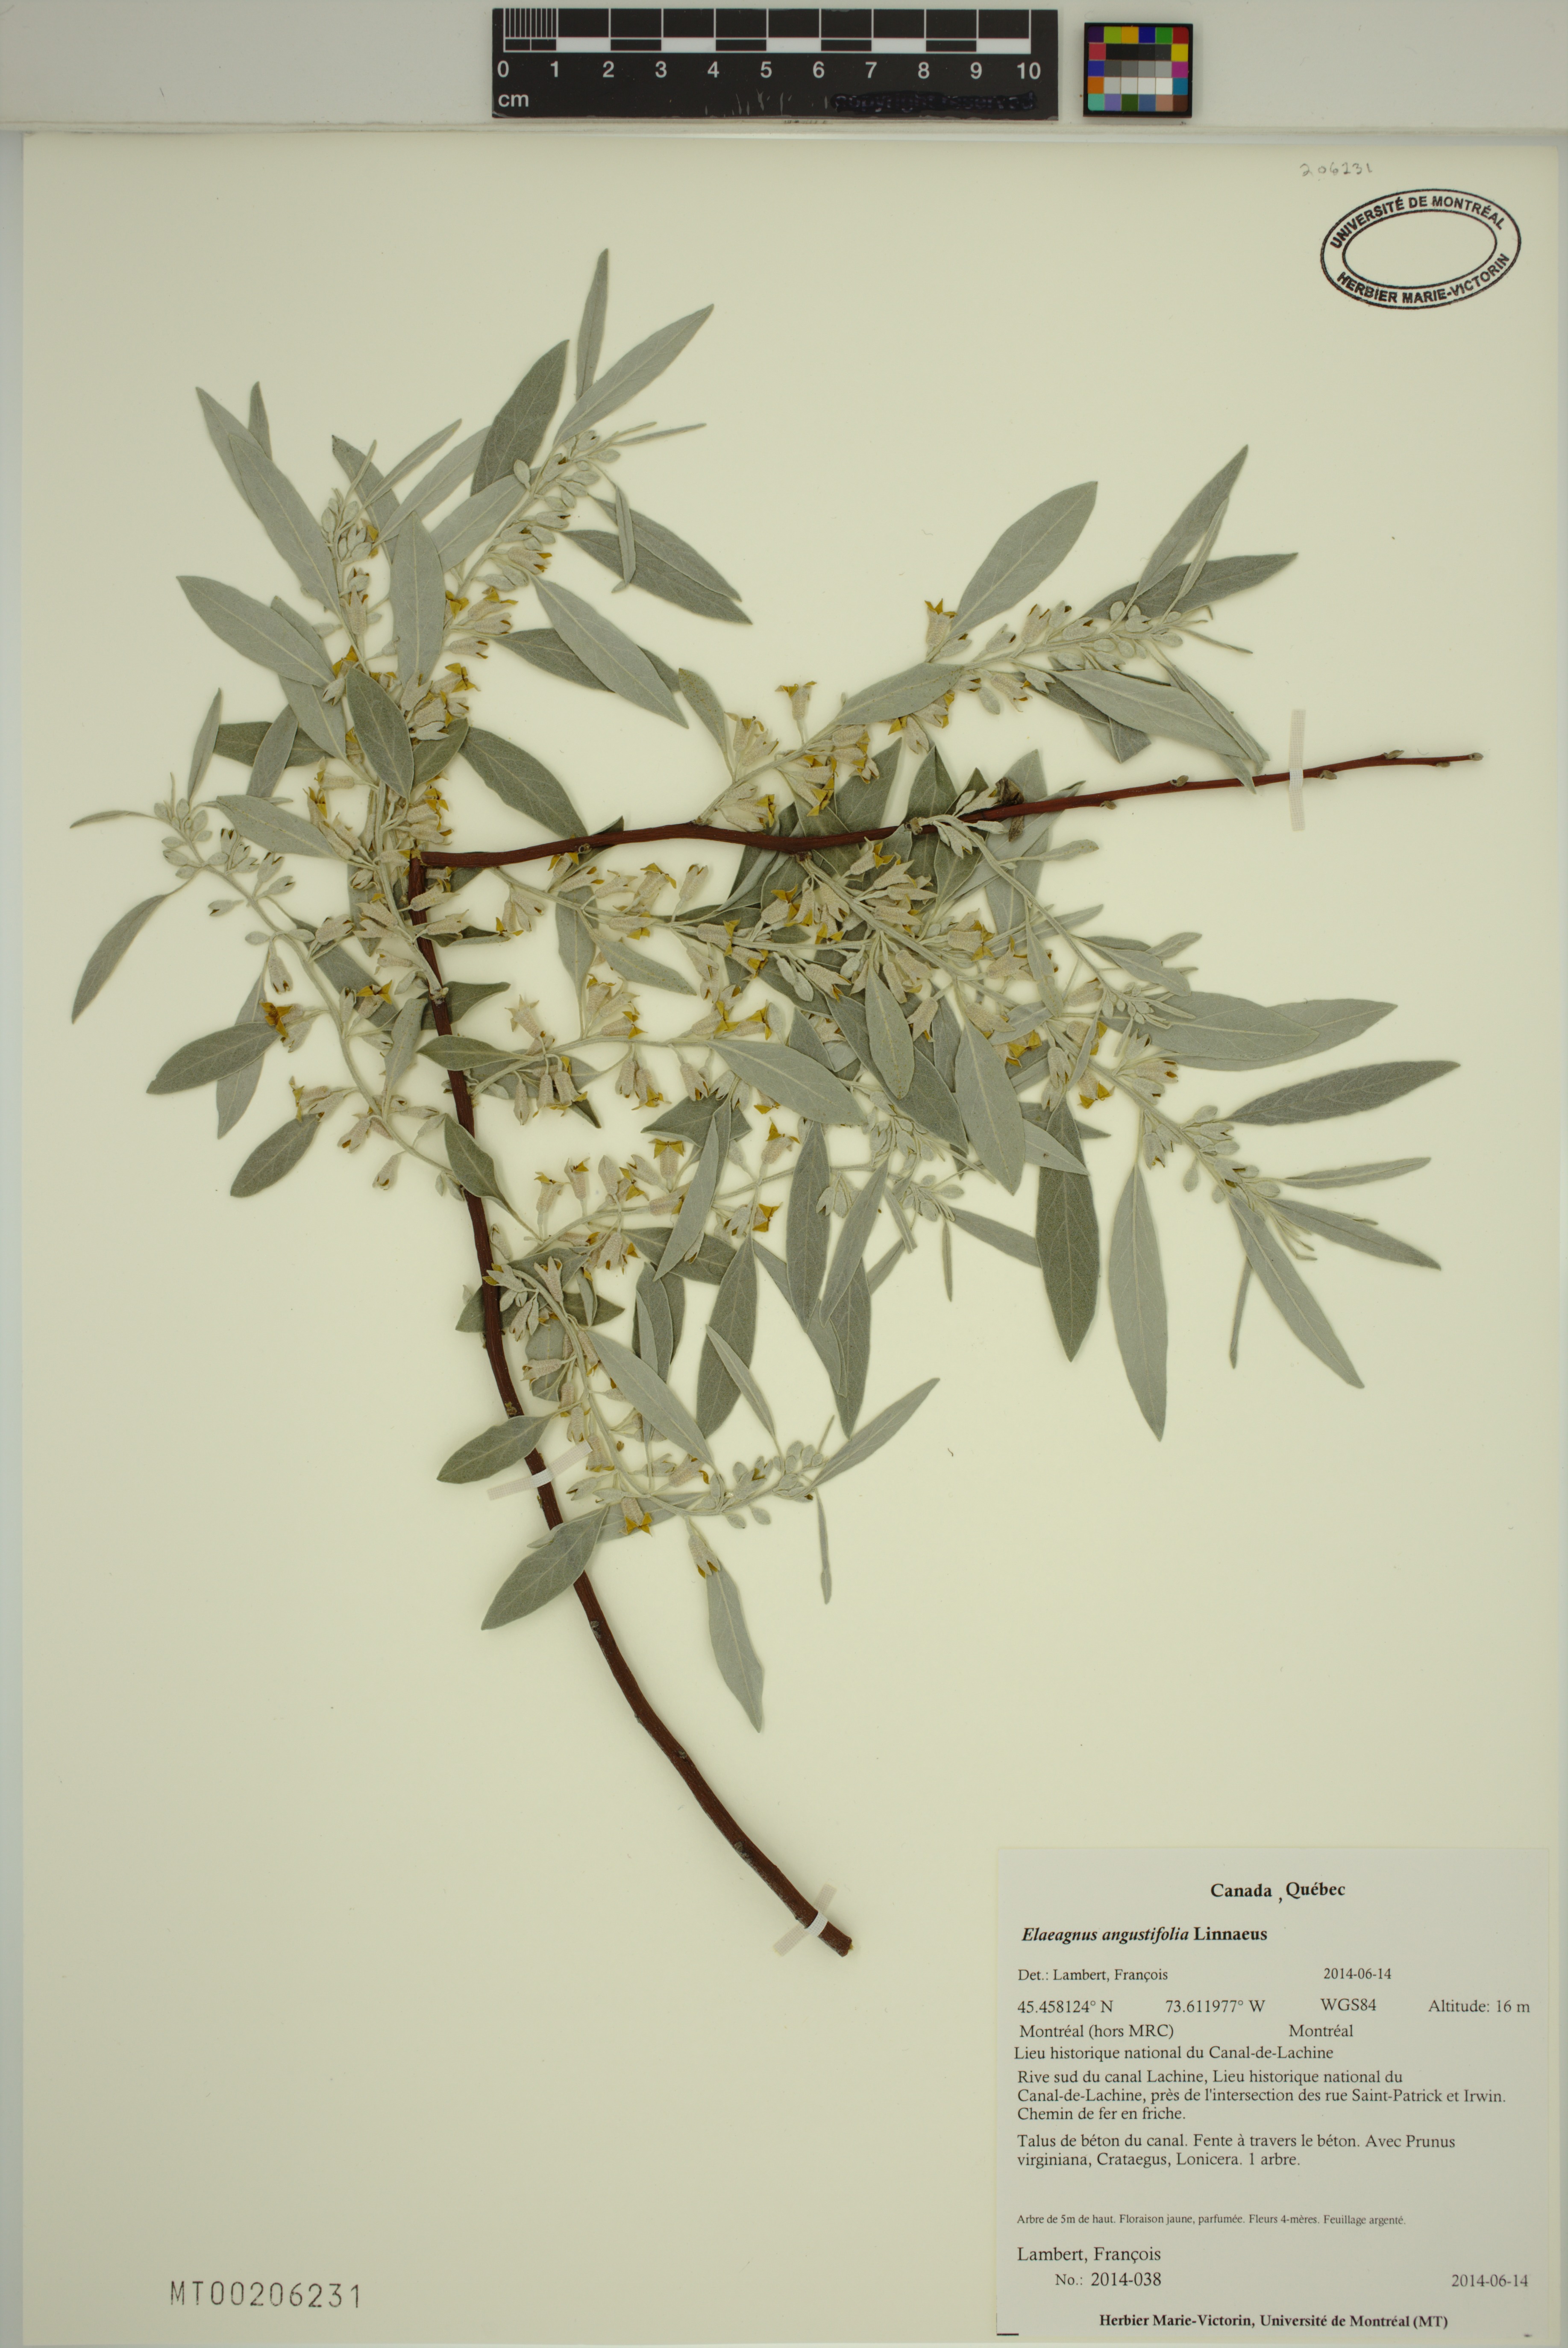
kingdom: Plantae
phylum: Tracheophyta
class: Magnoliopsida
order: Rosales
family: Elaeagnaceae
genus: Elaeagnus
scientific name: Elaeagnus angustifolia
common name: Russian olive
